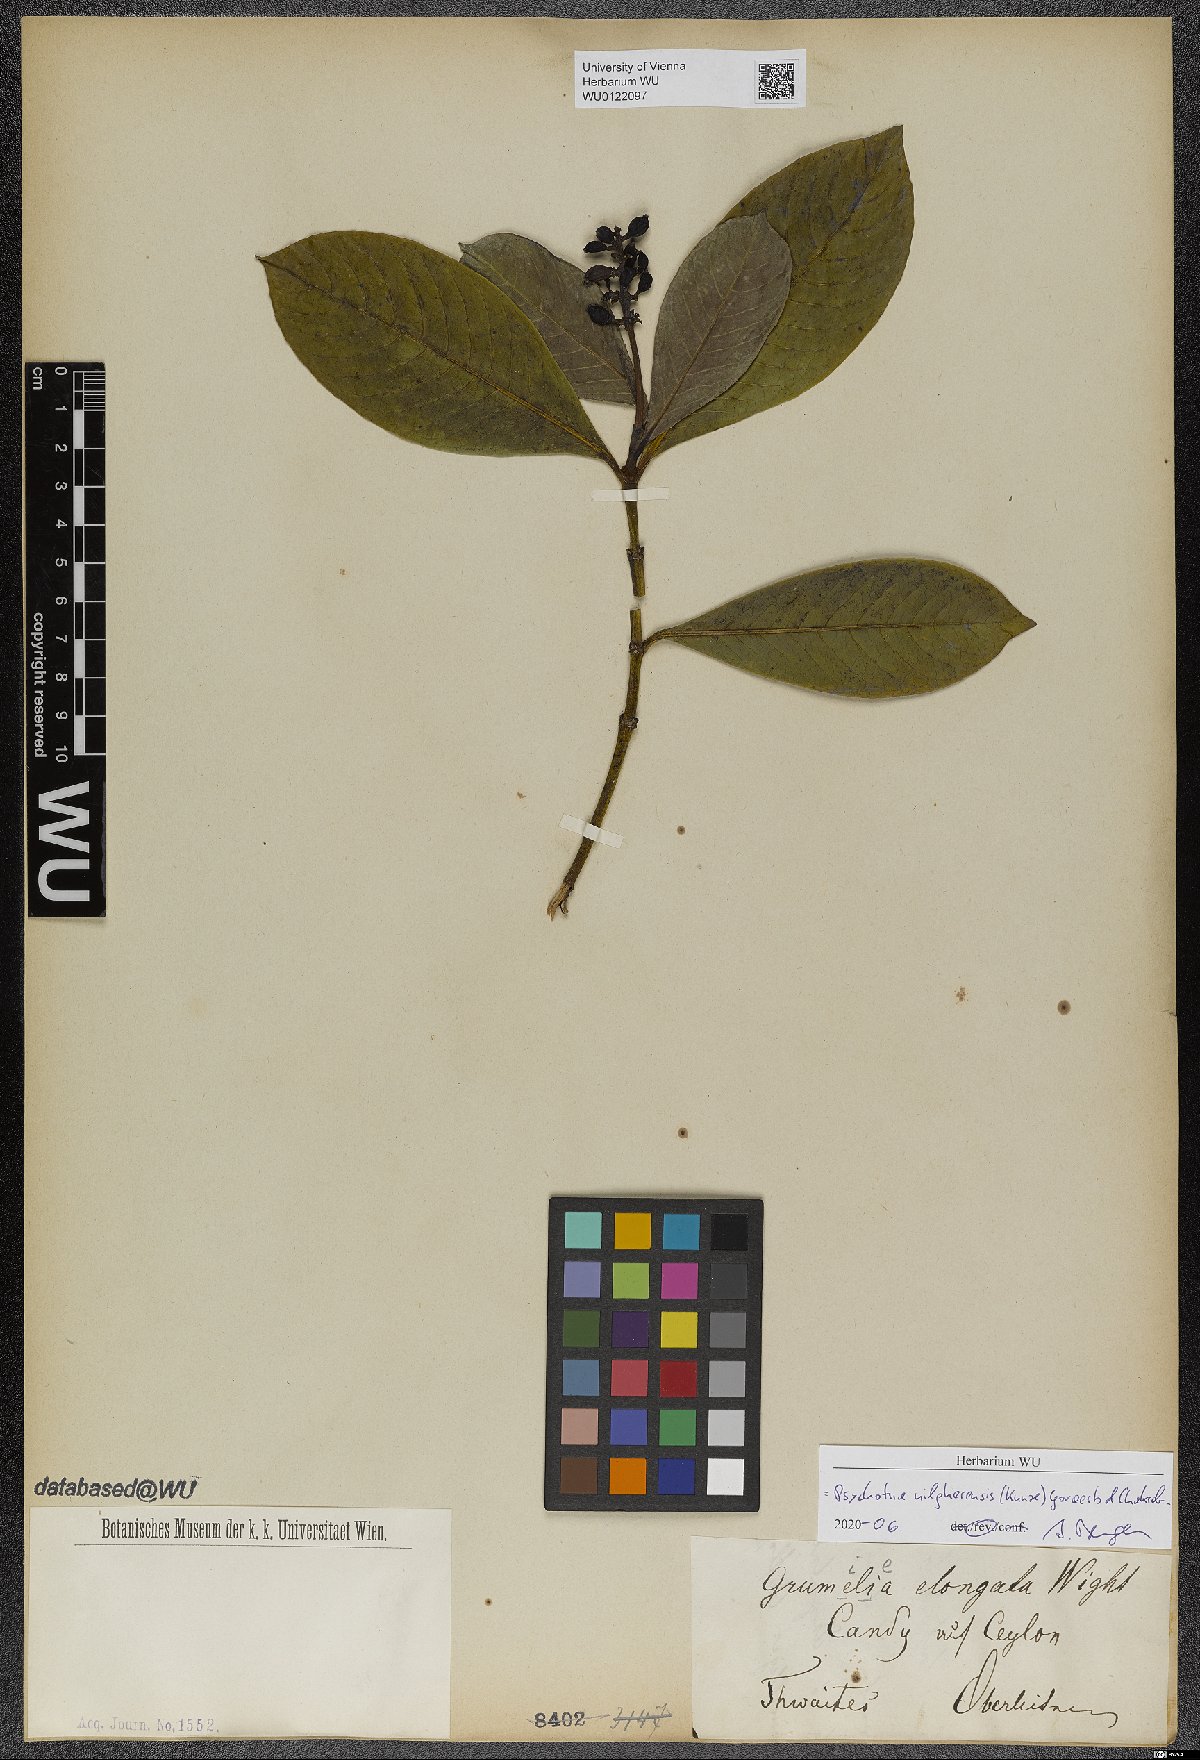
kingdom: Plantae
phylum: Tracheophyta
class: Magnoliopsida
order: Gentianales
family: Rubiaceae
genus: Psychotria
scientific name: Psychotria nilgherensis
